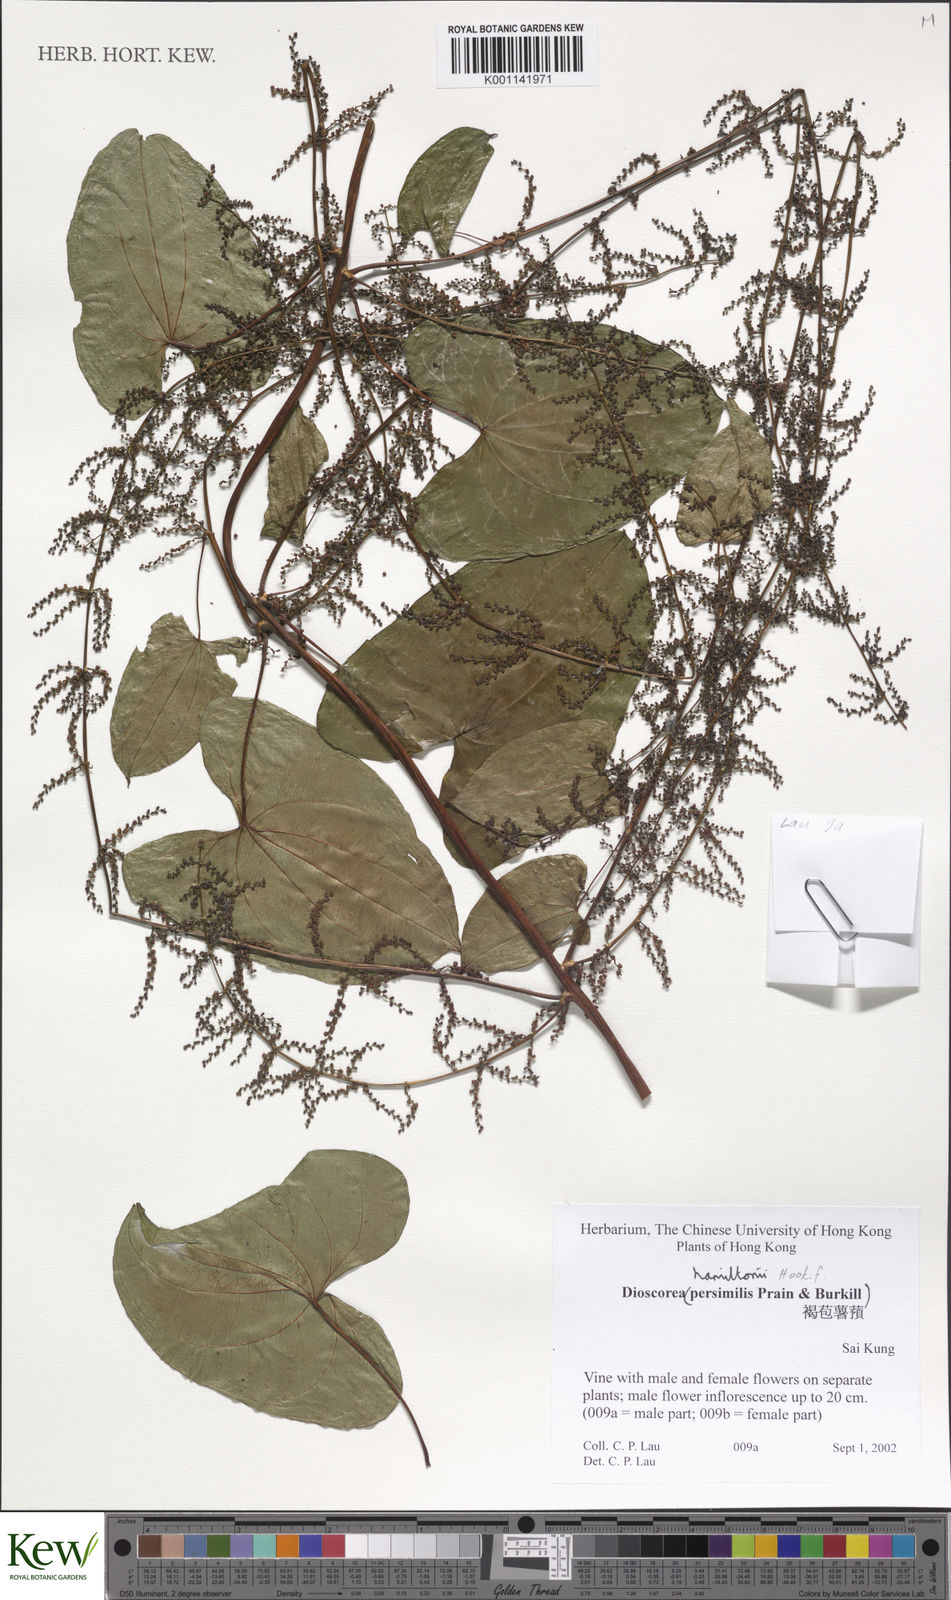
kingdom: Plantae
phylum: Tracheophyta
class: Liliopsida
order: Dioscoreales
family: Dioscoreaceae
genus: Dioscorea
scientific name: Dioscorea hamiltonii
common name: Mountain yam
